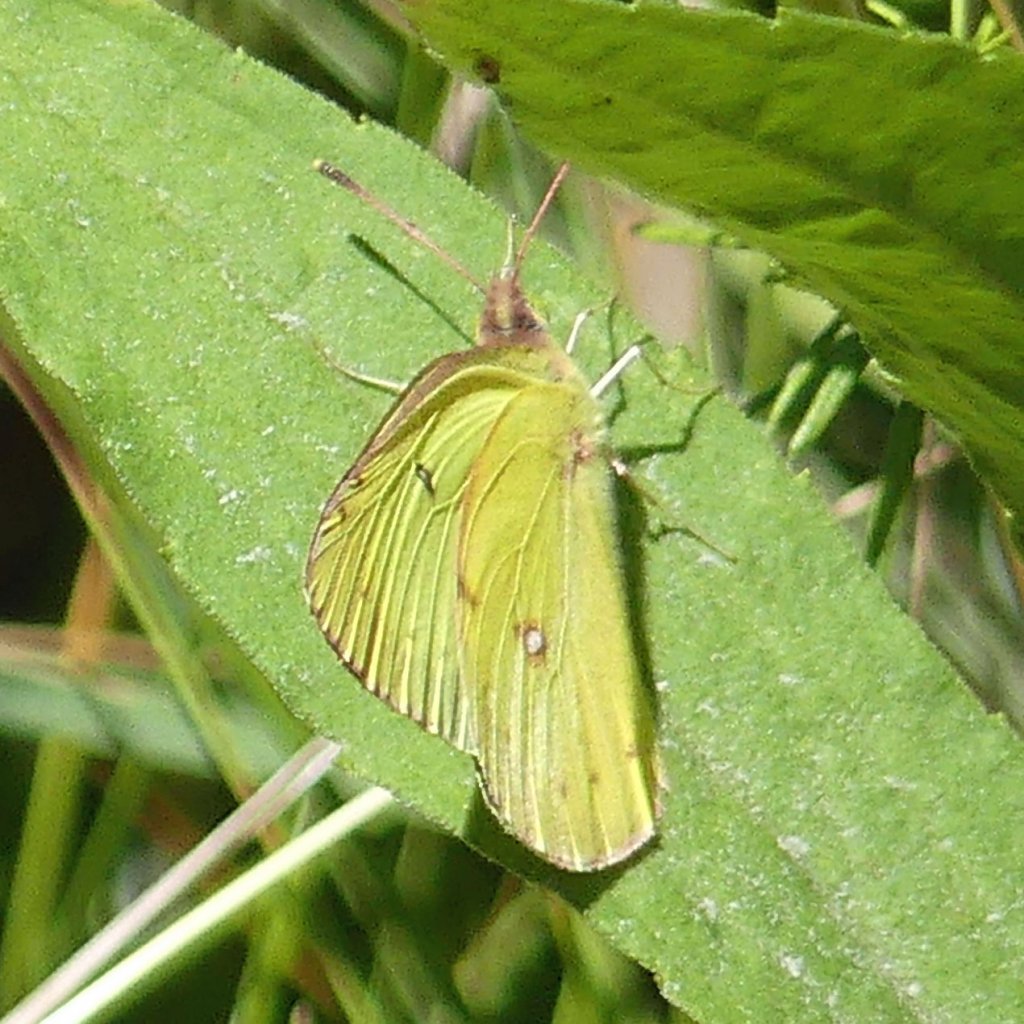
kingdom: Animalia
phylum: Arthropoda
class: Insecta
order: Lepidoptera
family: Pieridae
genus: Colias
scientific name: Colias philodice
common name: Clouded Sulphur
